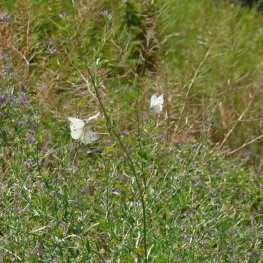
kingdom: Animalia
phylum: Arthropoda
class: Insecta
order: Lepidoptera
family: Pieridae
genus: Pieris
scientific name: Pieris rapae
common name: Cabbage White
